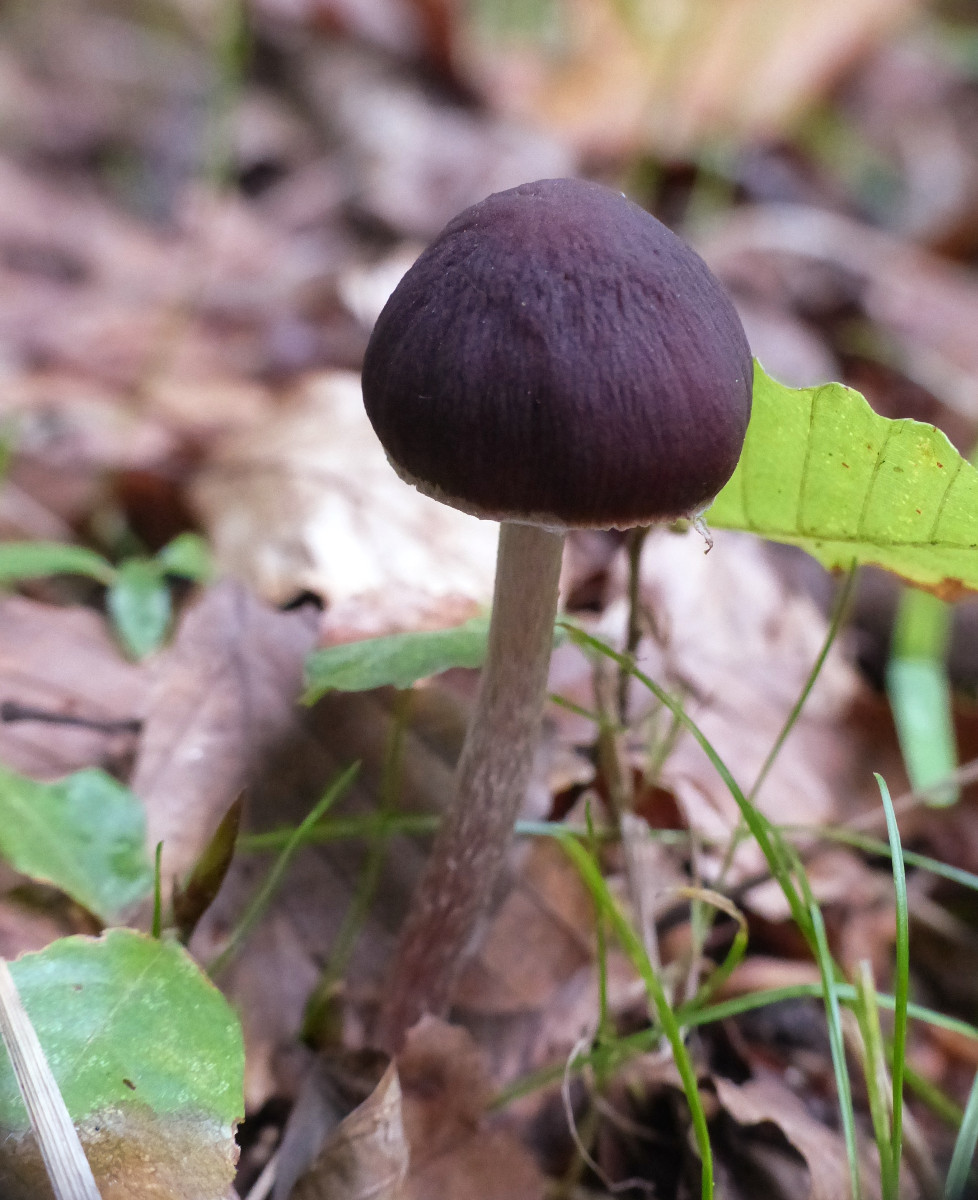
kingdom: Fungi
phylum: Basidiomycota
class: Agaricomycetes
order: Agaricales
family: Psathyrellaceae
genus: Psathyrella
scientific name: Psathyrella bipellis
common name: vinrød mørkhat
